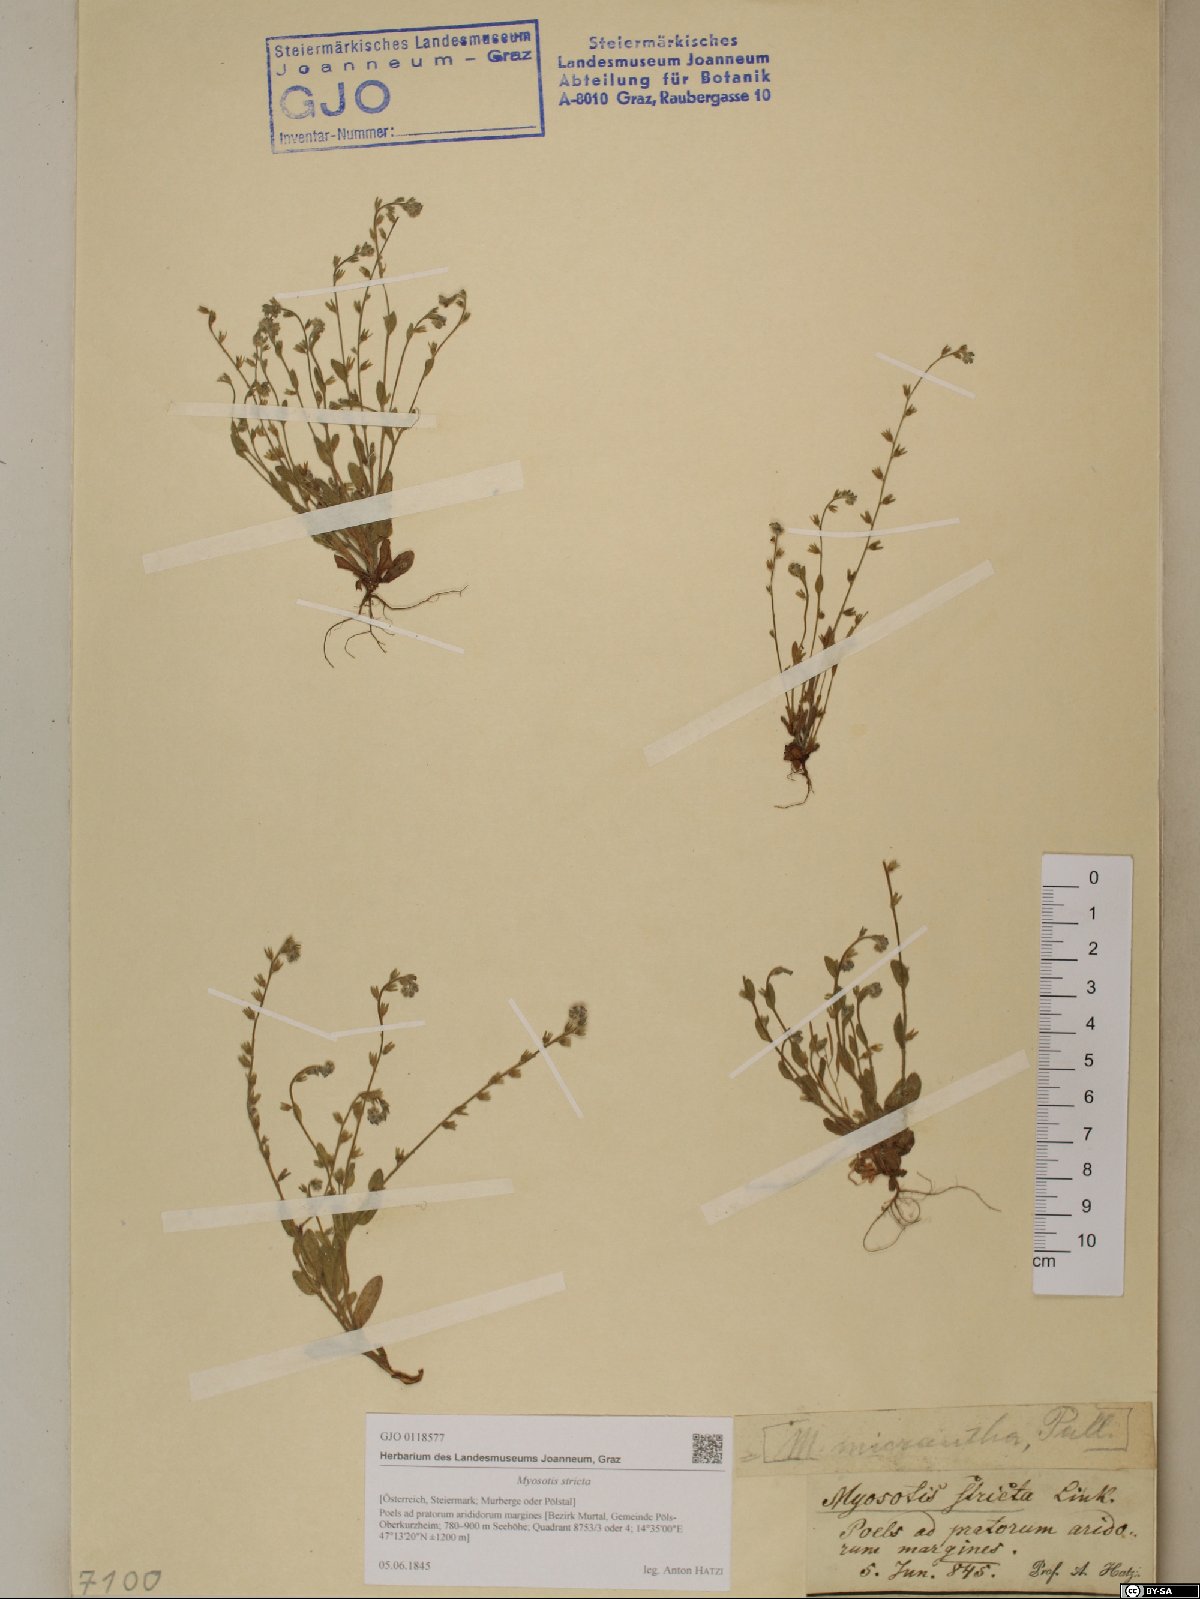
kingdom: Plantae
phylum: Tracheophyta
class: Magnoliopsida
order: Boraginales
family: Boraginaceae
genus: Myosotis
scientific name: Myosotis stricta
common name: Strict forget-me-not
